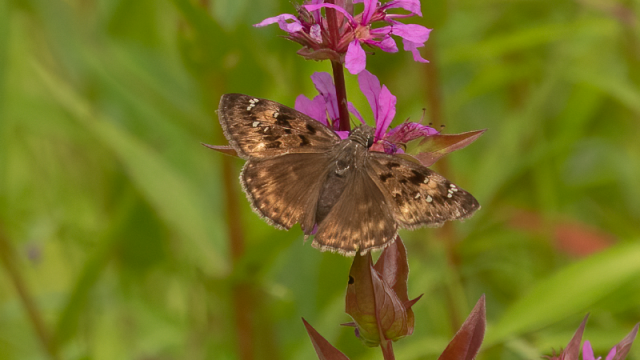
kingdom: Animalia
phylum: Arthropoda
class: Insecta
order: Lepidoptera
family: Hesperiidae
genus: Gesta
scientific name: Gesta
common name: Horace's Duskywing
